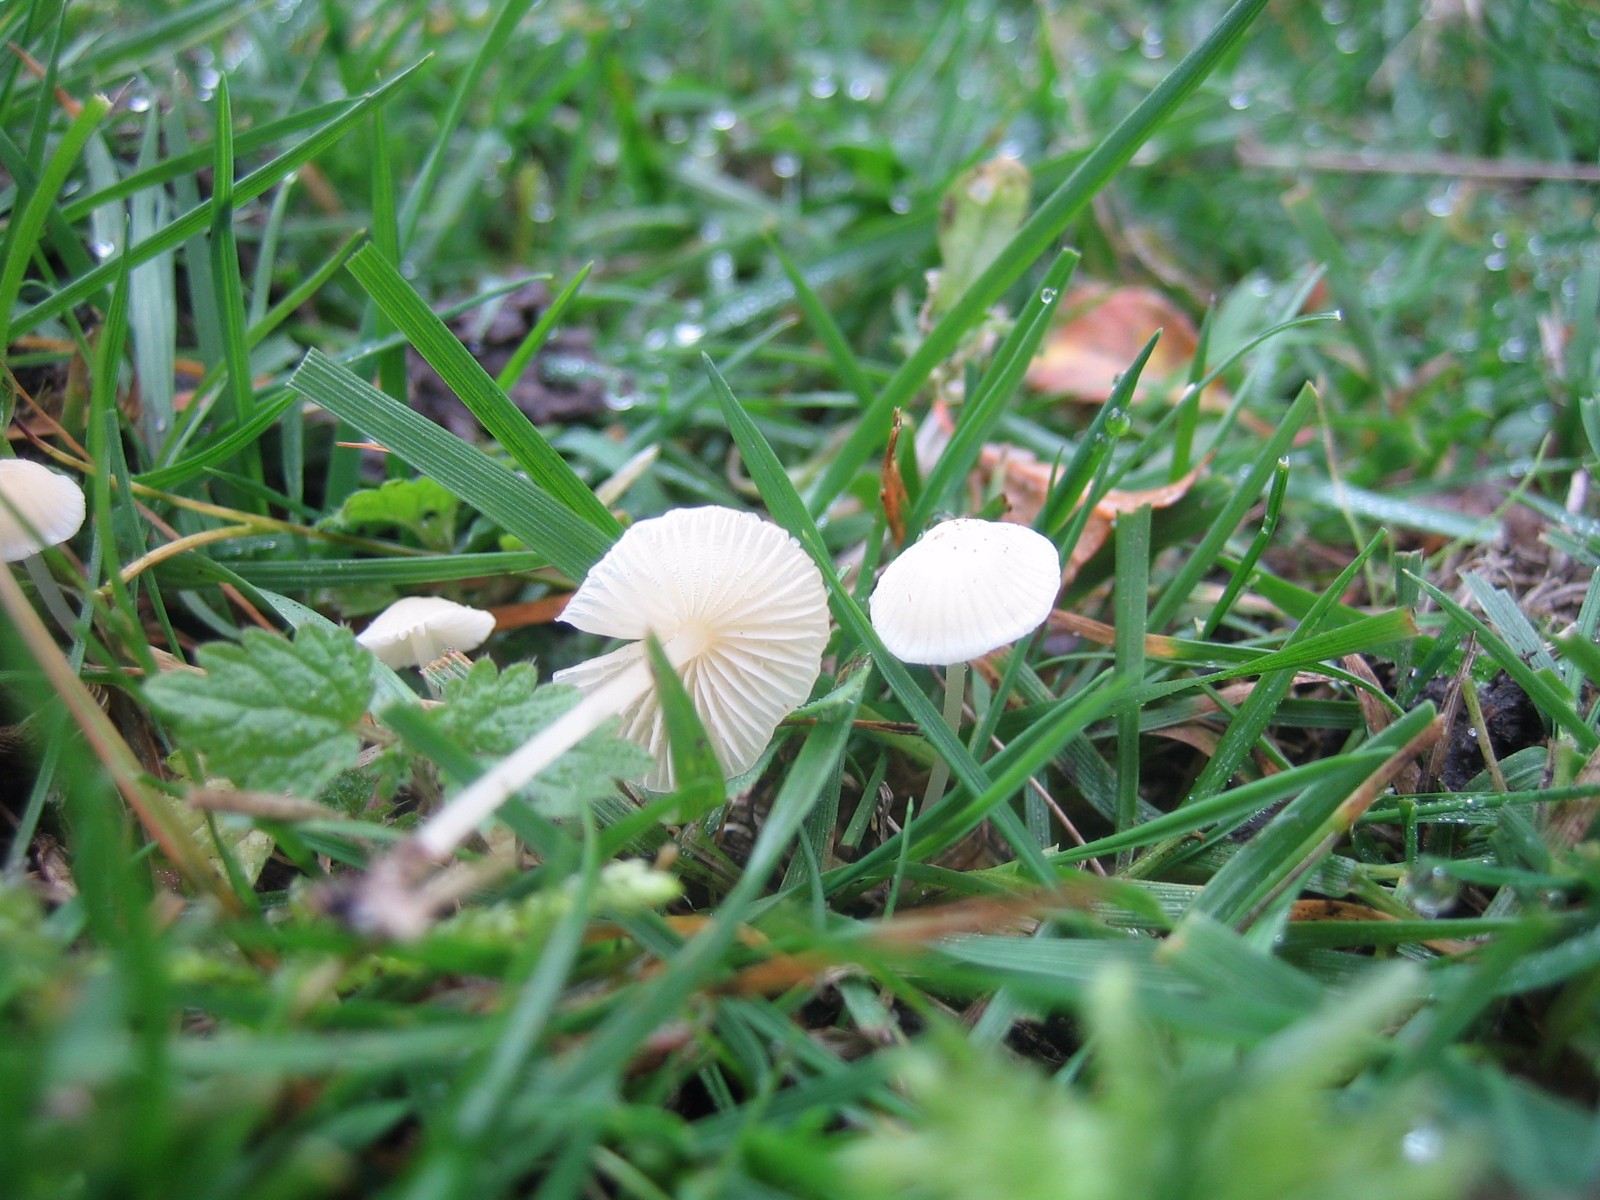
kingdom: Fungi
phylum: Basidiomycota
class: Agaricomycetes
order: Agaricales
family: Mycenaceae
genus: Atheniella
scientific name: Atheniella flavoalba
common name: gulhvid huesvamp
